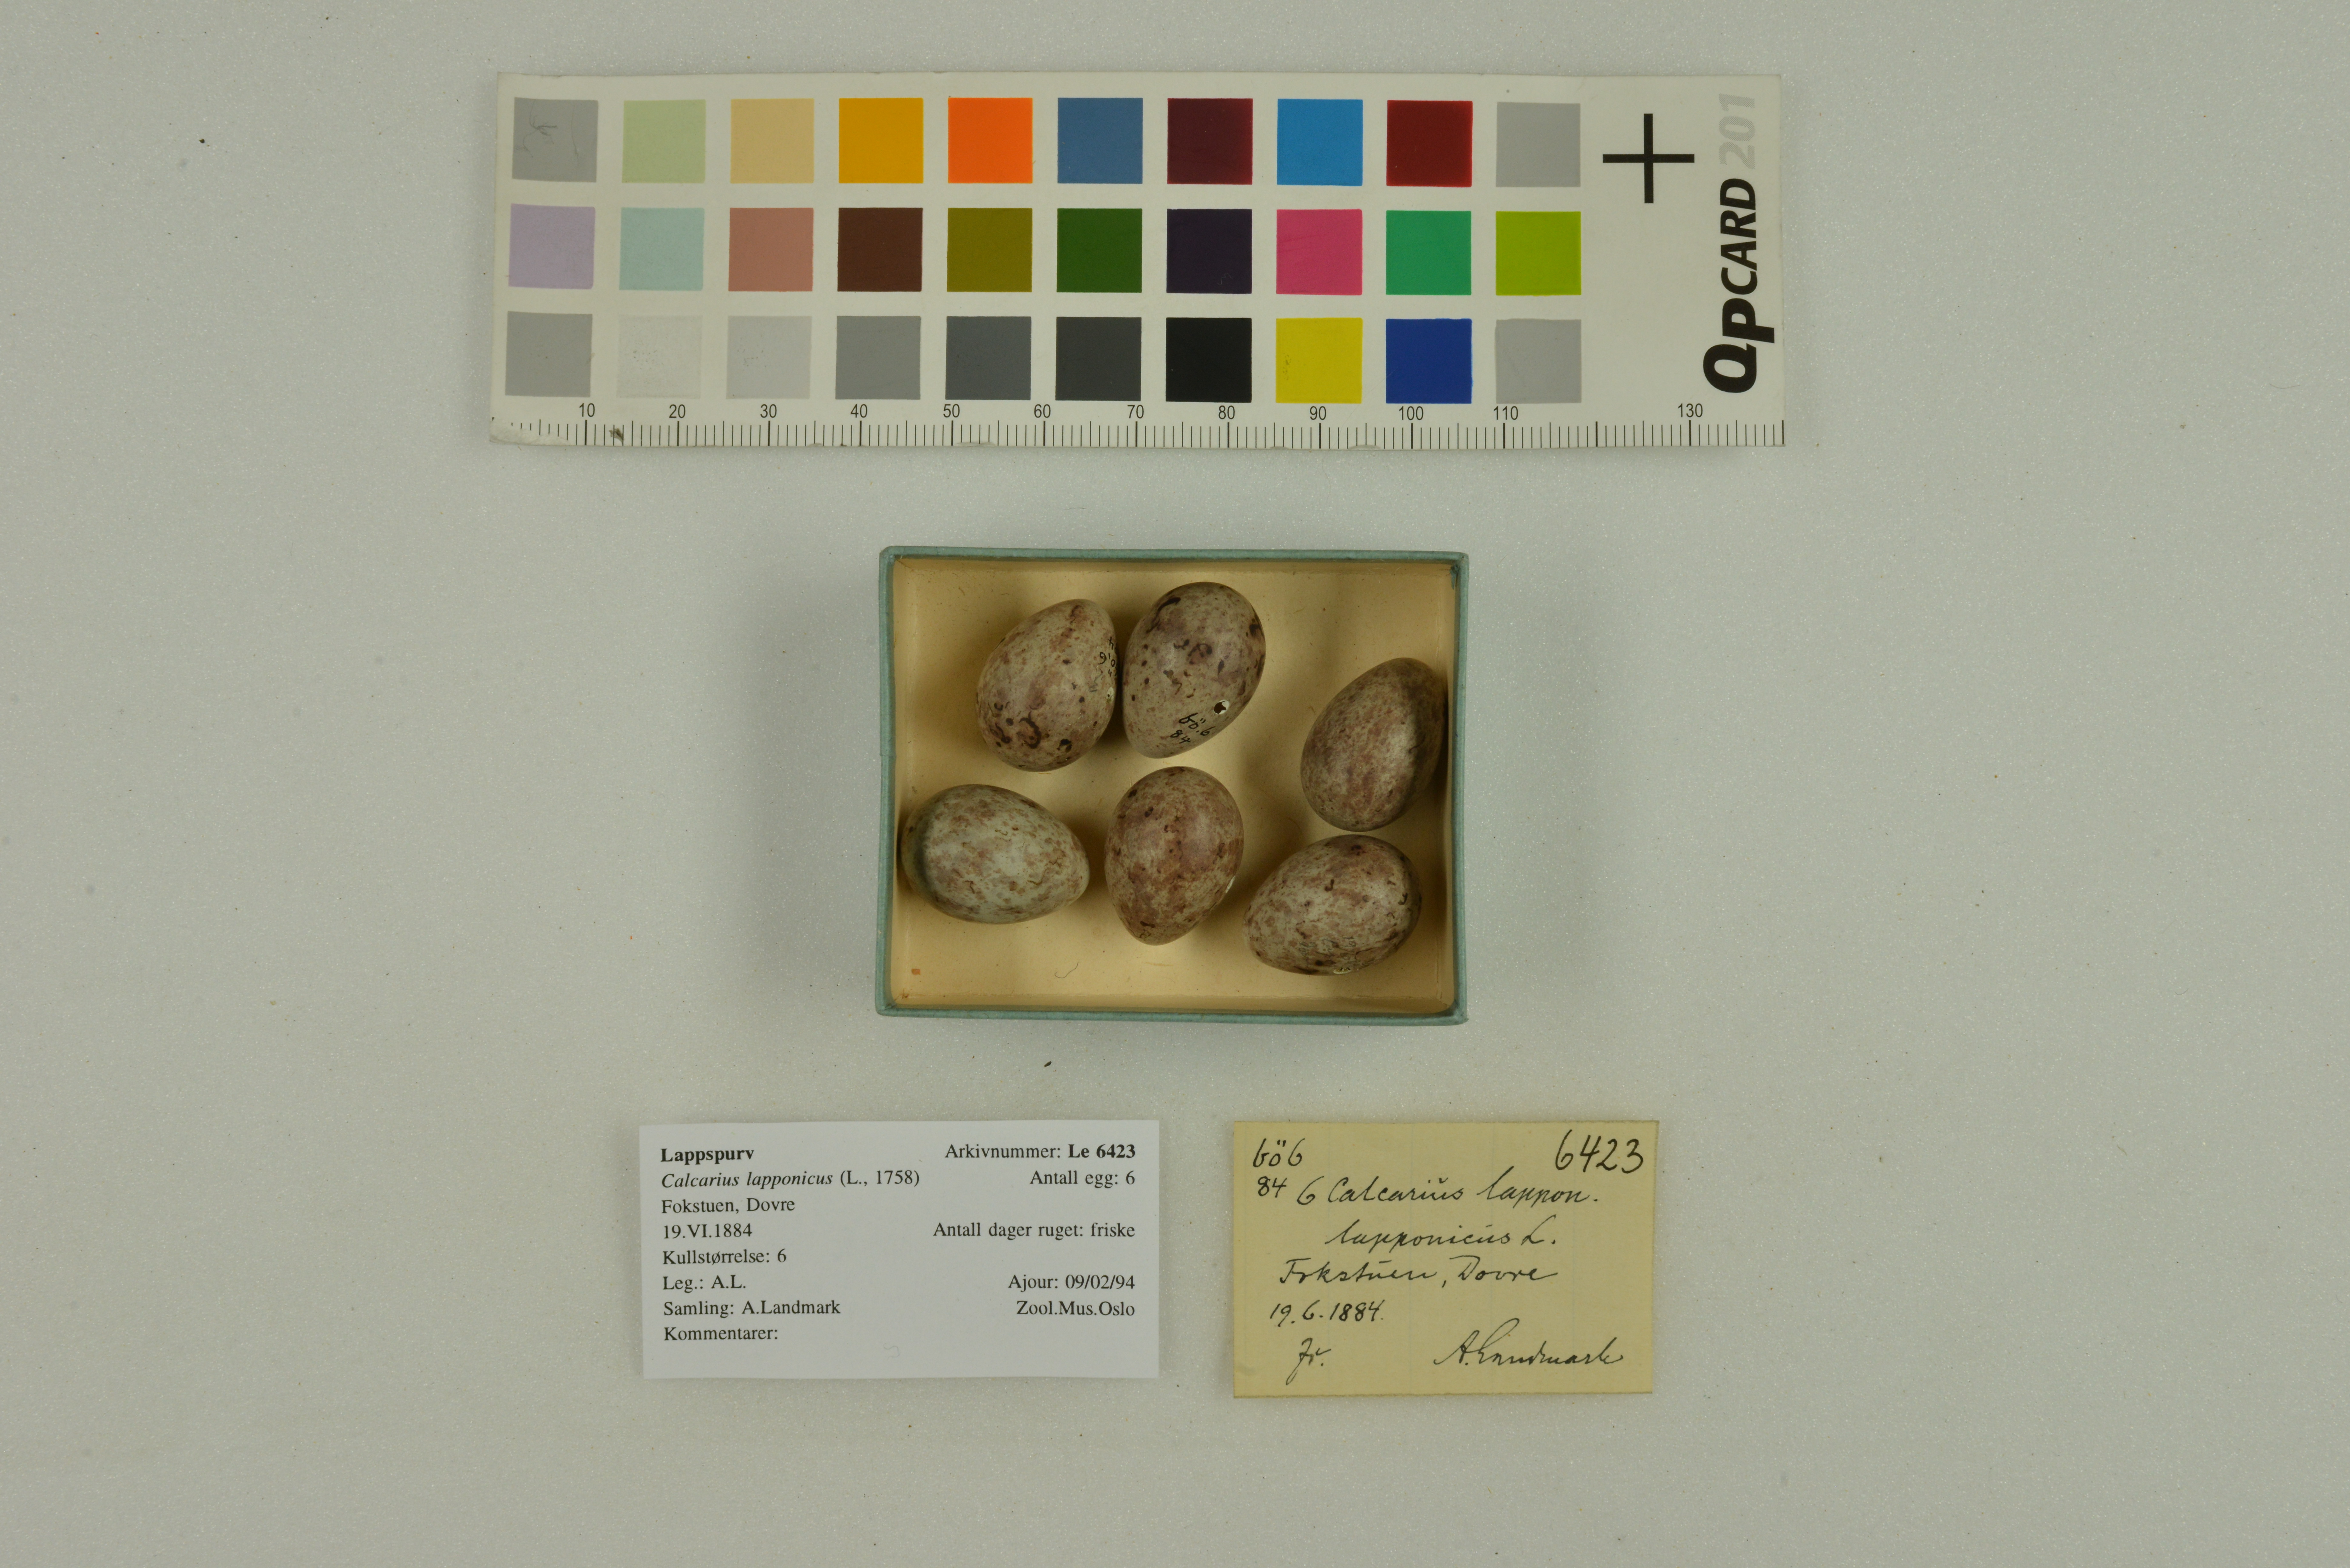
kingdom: Animalia
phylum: Chordata
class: Aves
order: Passeriformes
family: Calcariidae
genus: Calcarius
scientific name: Calcarius lapponicus
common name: Lapland longspur
